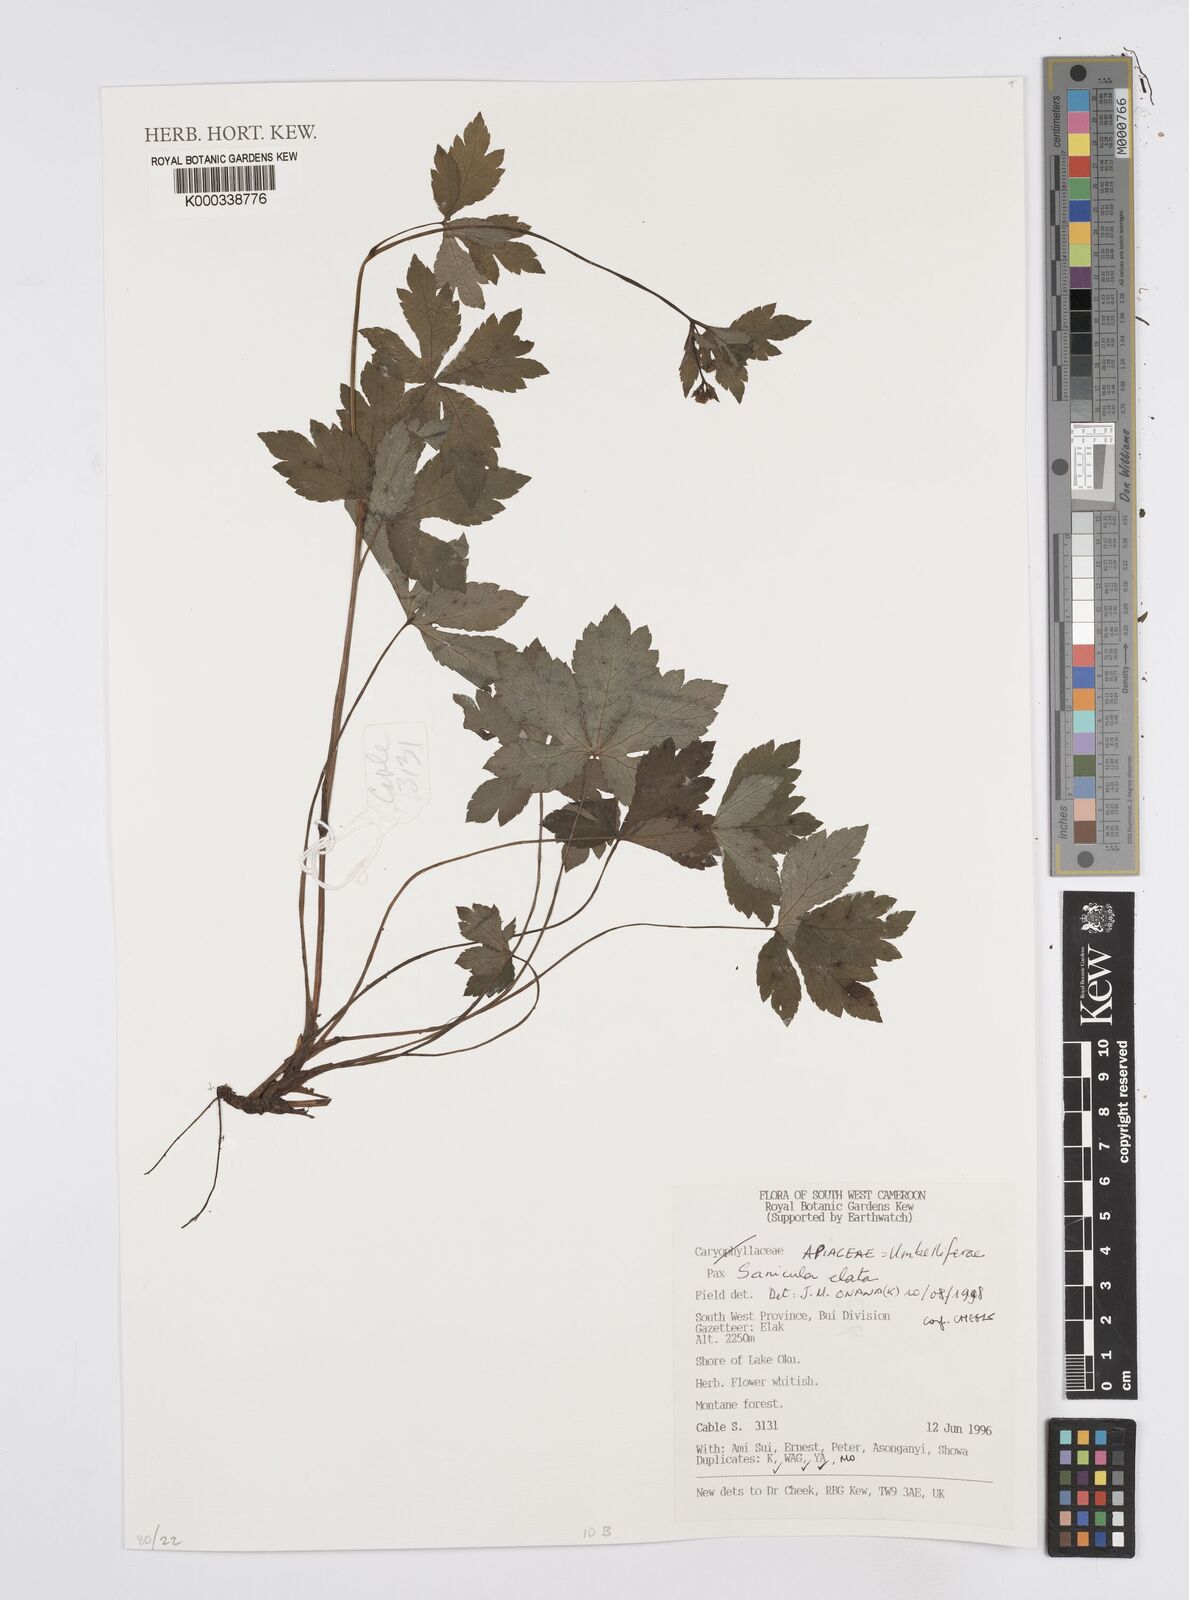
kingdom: Plantae
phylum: Tracheophyta
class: Magnoliopsida
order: Apiales
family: Apiaceae
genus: Sanicula
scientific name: Sanicula
